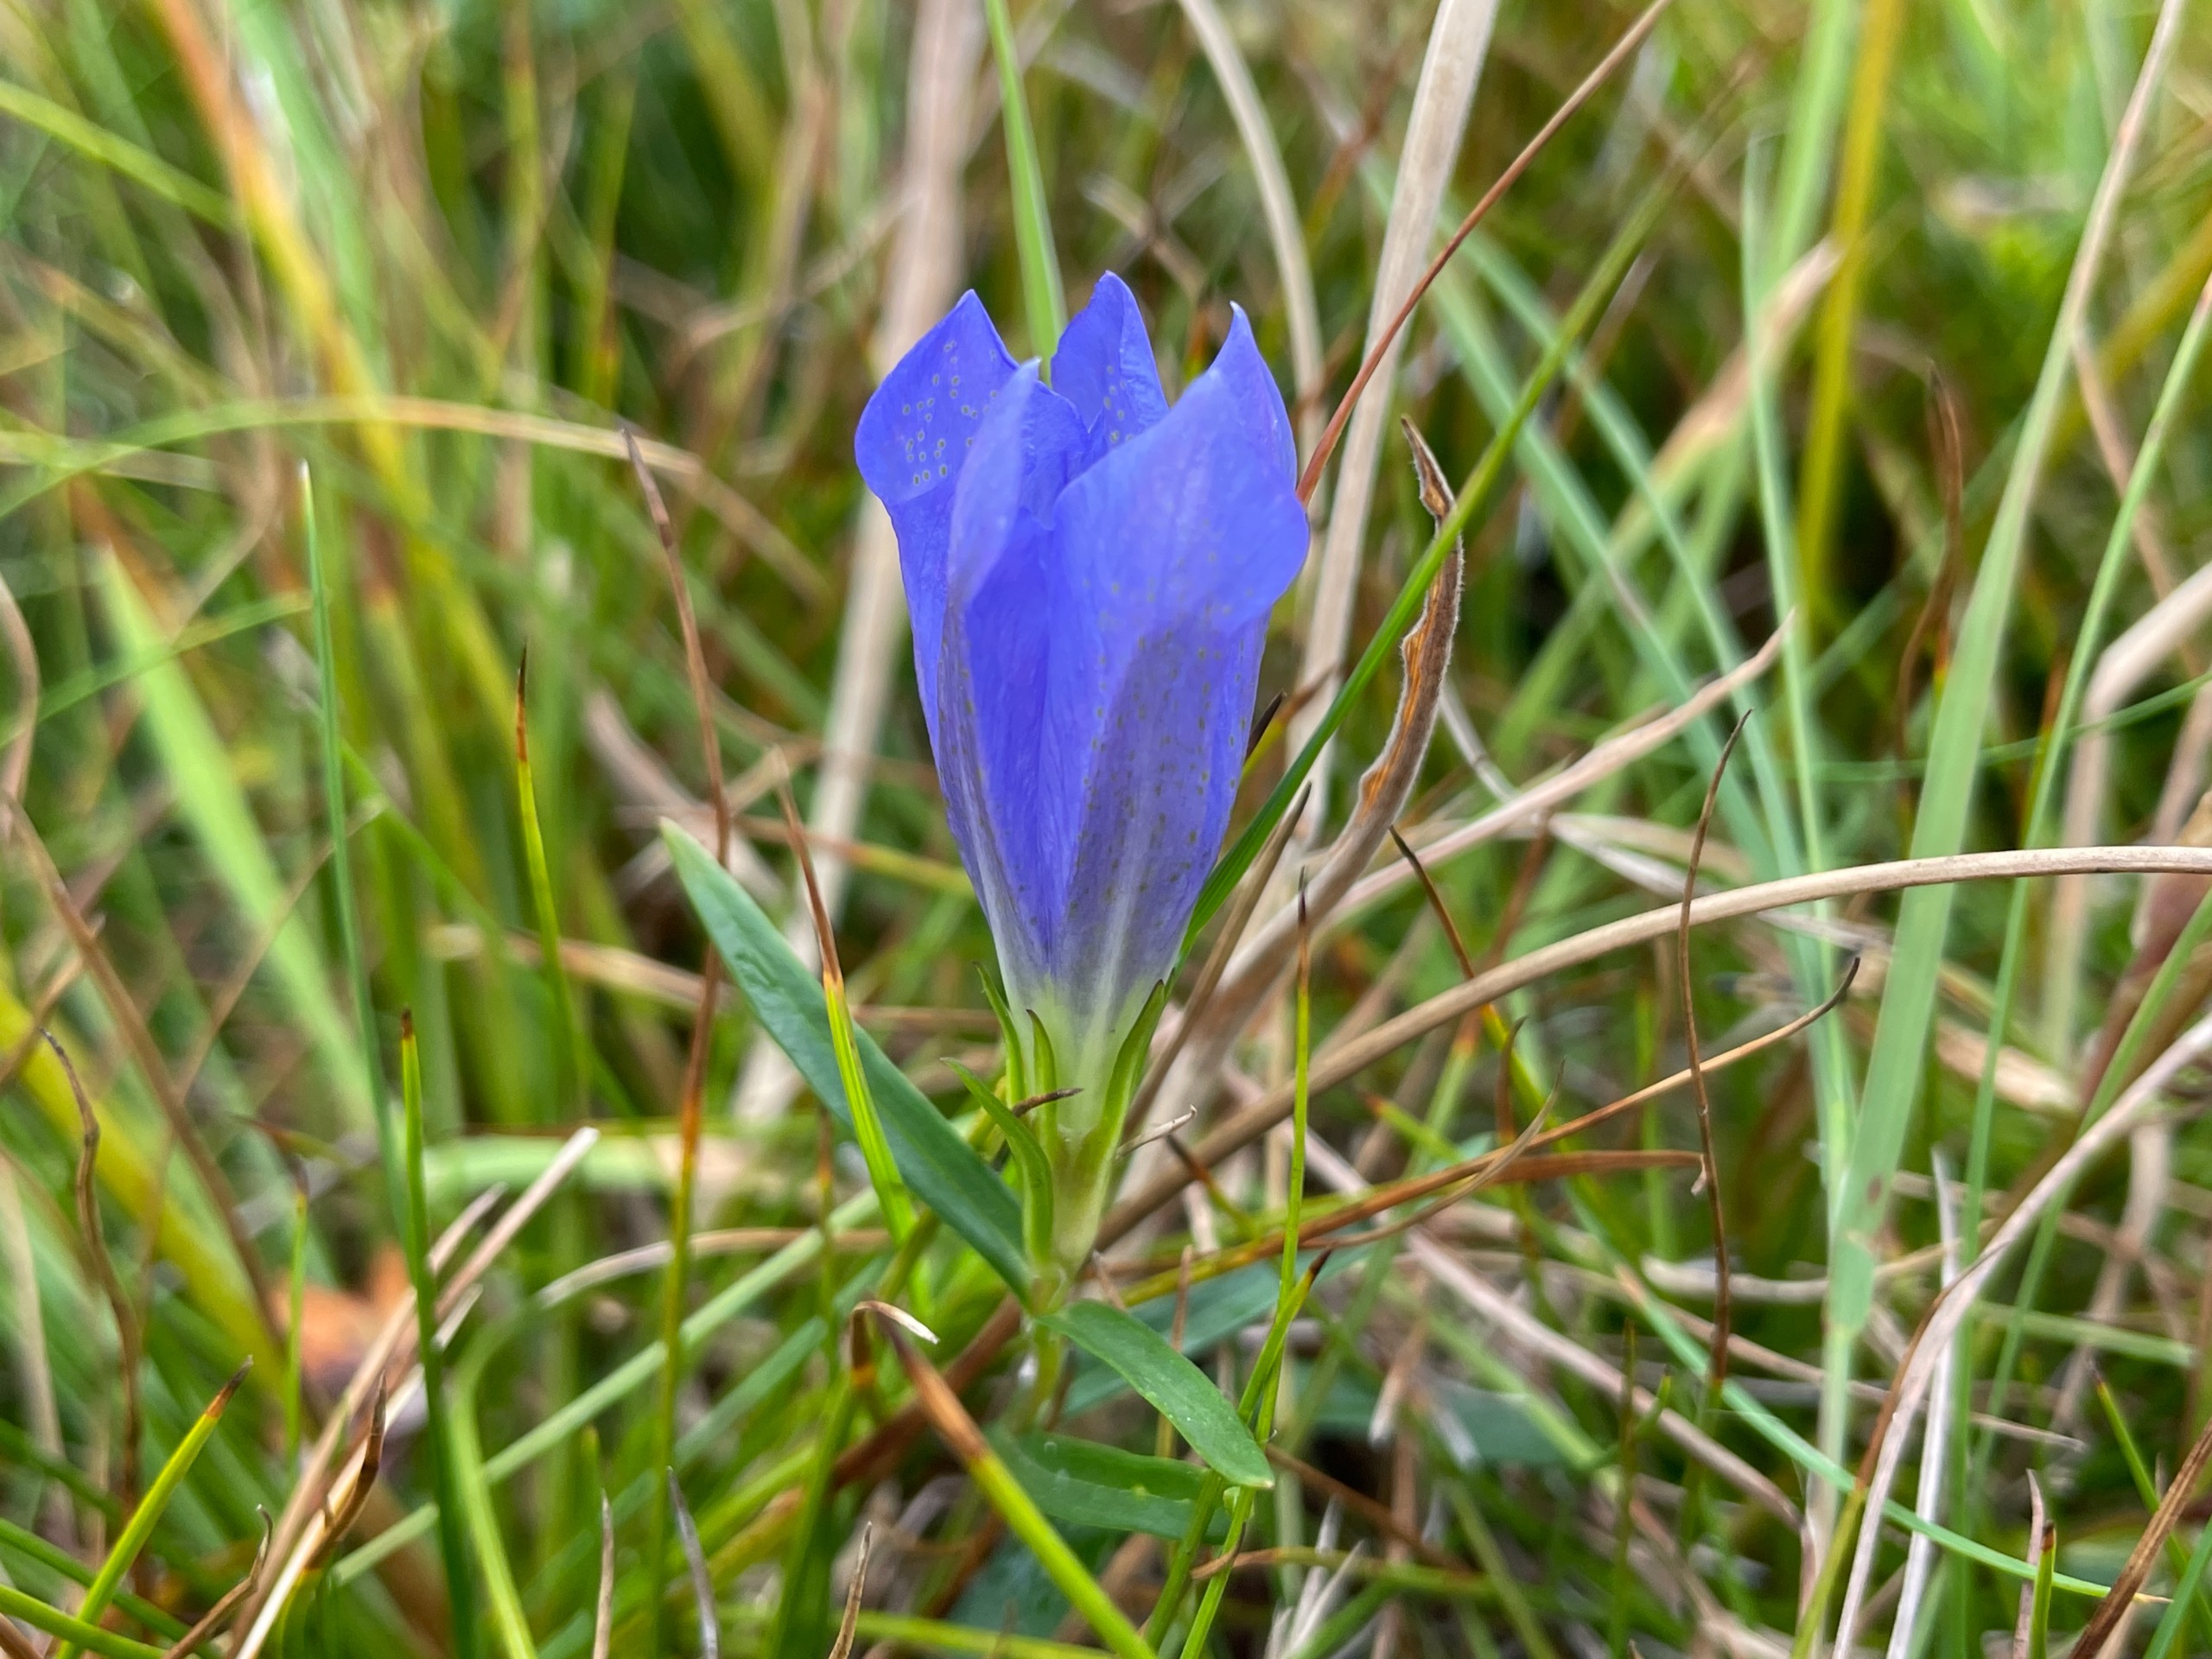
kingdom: Plantae
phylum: Tracheophyta
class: Magnoliopsida
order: Gentianales
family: Gentianaceae
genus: Gentiana
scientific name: Gentiana pneumonanthe
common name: Klokke-ensian
